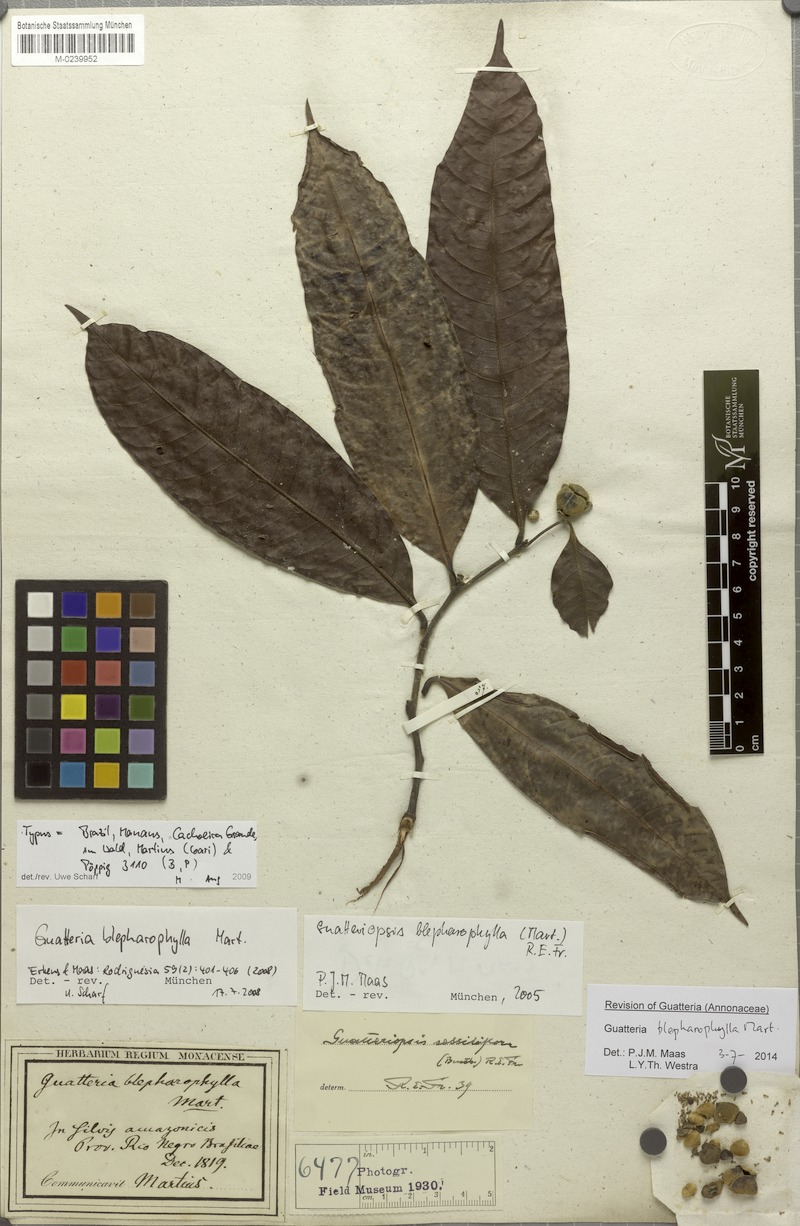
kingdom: Plantae
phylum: Tracheophyta
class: Magnoliopsida
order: Magnoliales
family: Annonaceae
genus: Guatteria
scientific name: Guatteria blepharophylla
